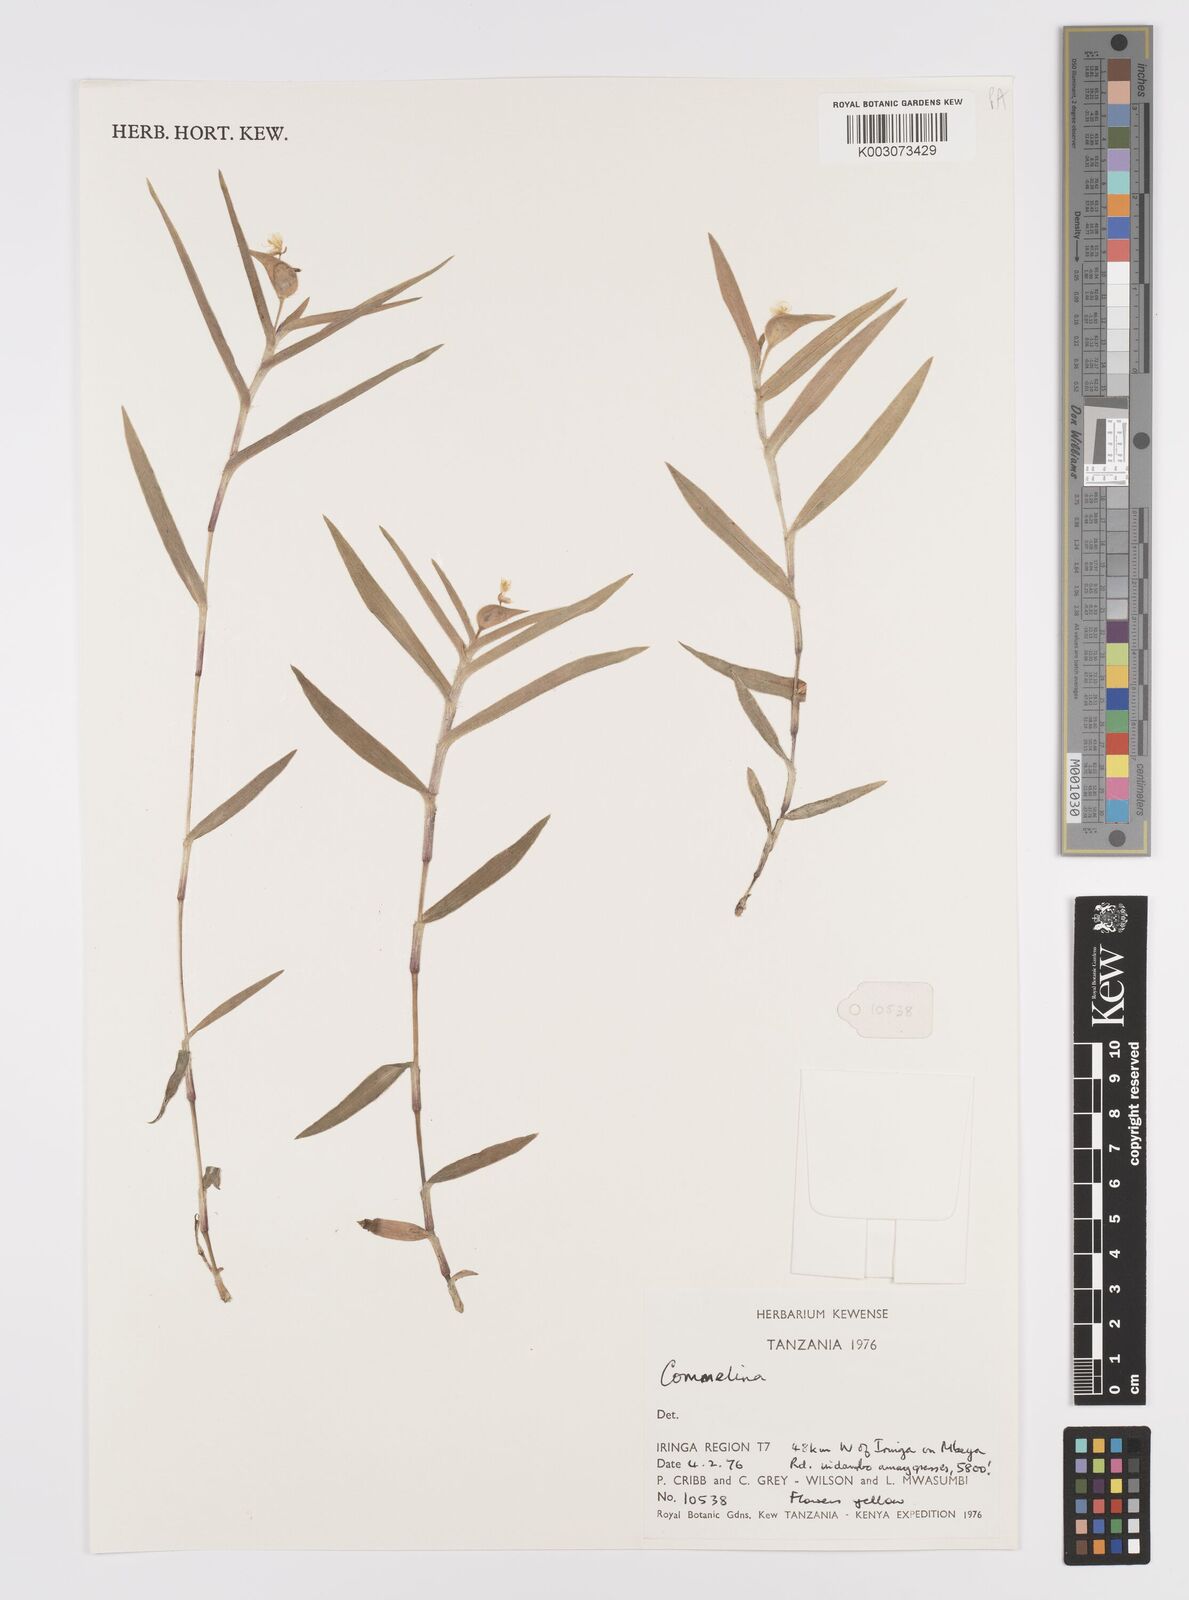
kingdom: Plantae
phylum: Tracheophyta
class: Liliopsida
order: Commelinales
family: Commelinaceae
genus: Commelina
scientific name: Commelina africana
